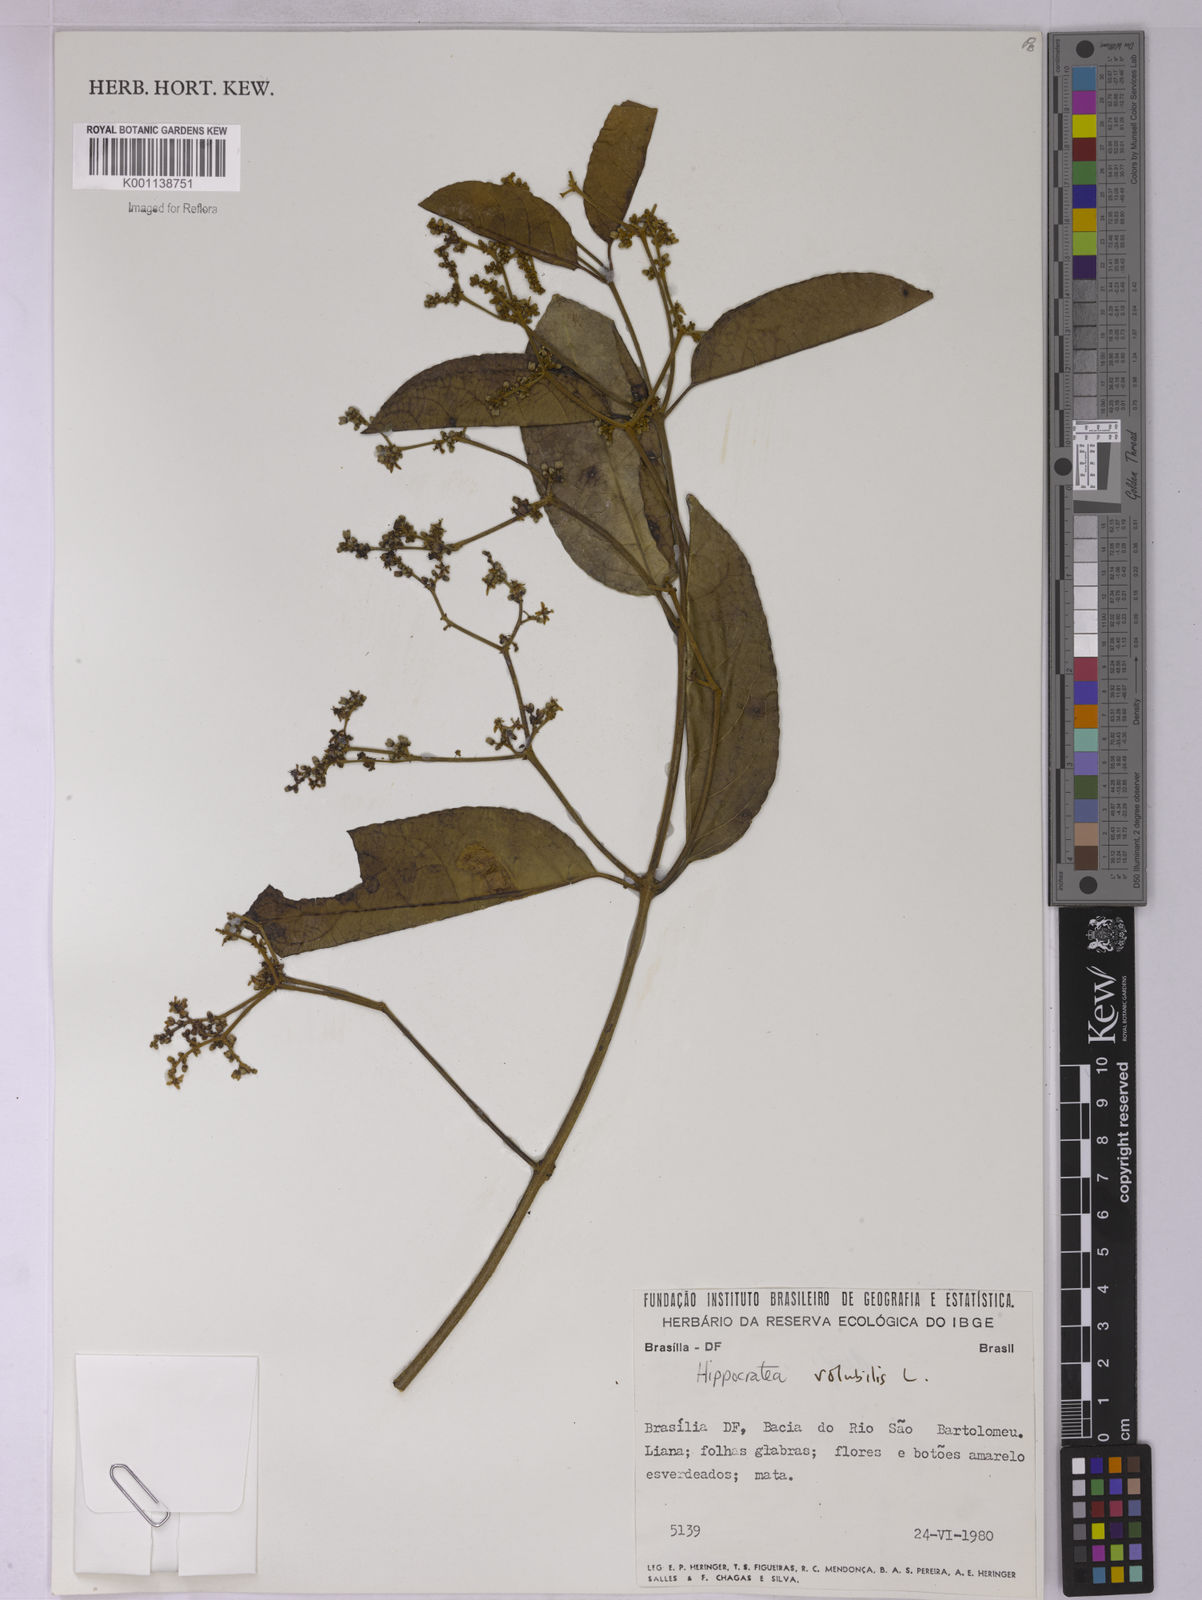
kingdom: Plantae
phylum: Tracheophyta
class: Magnoliopsida
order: Celastrales
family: Celastraceae
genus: Hippocratea
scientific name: Hippocratea volubilis
